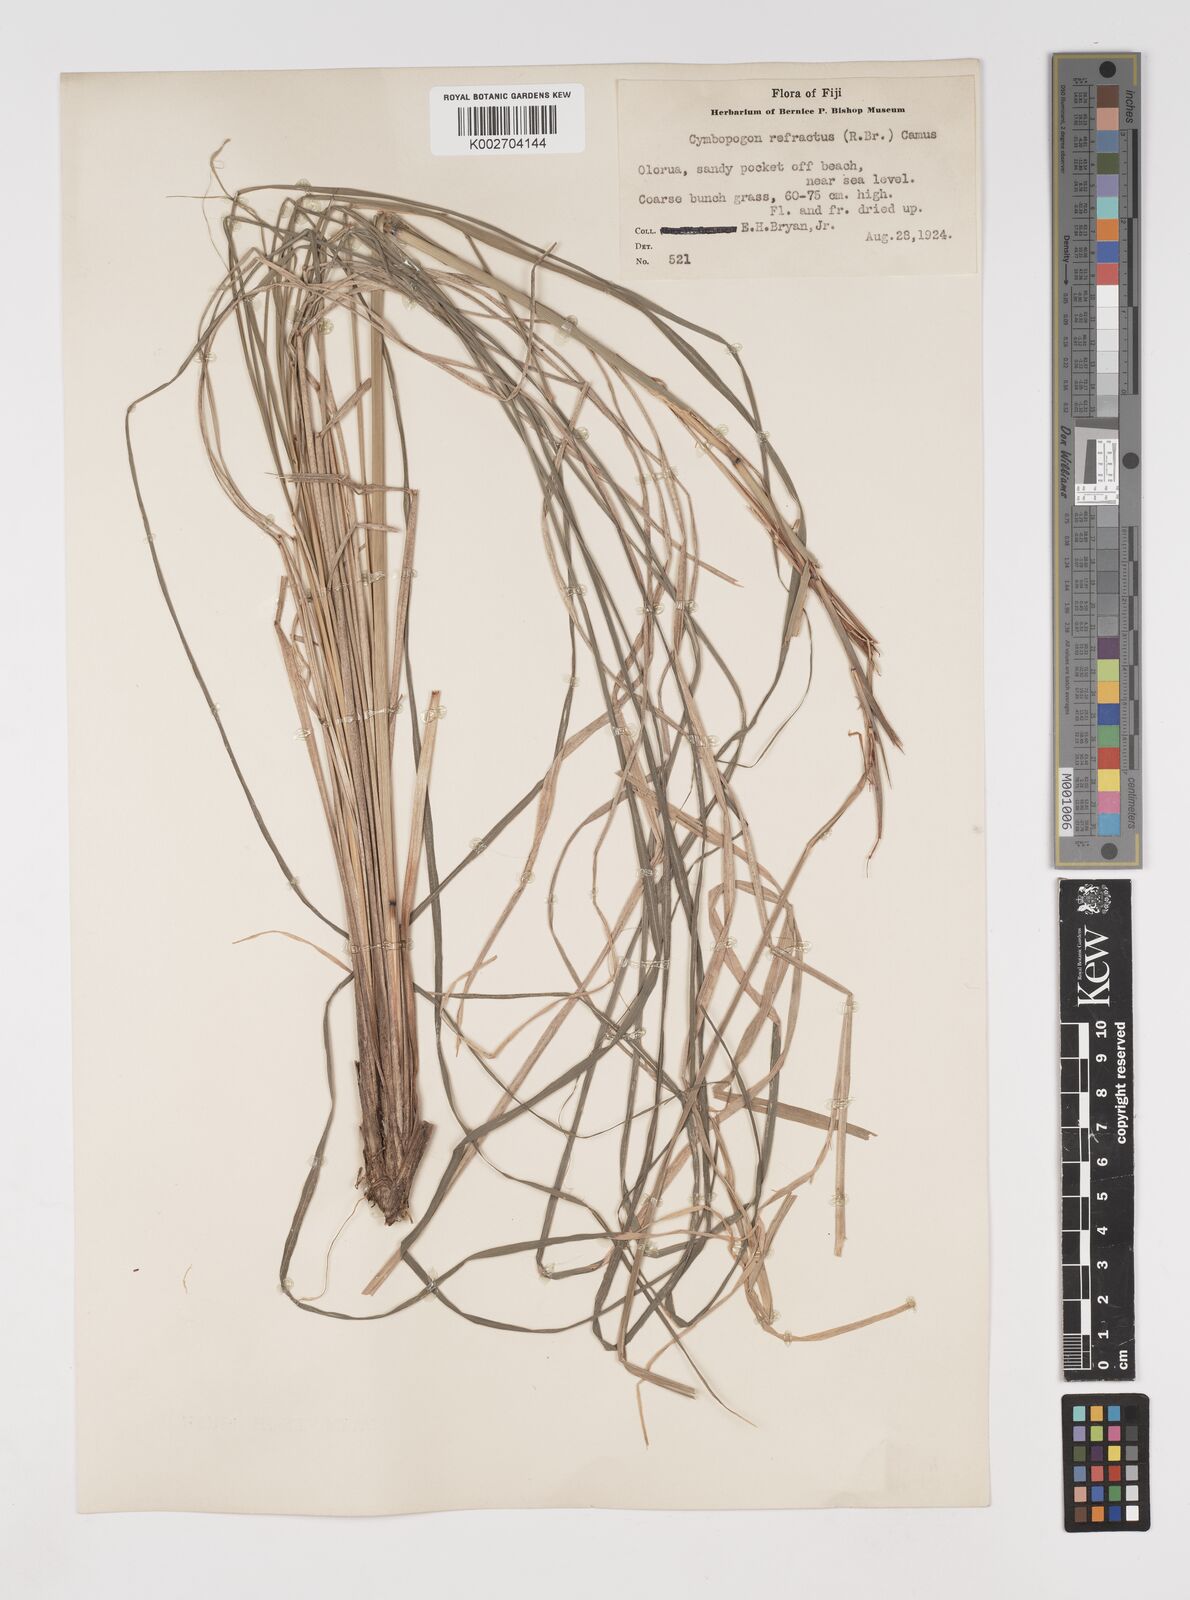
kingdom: Plantae
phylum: Tracheophyta
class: Liliopsida
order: Poales
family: Poaceae
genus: Cymbopogon
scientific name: Cymbopogon refractus
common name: Barbwire grass
